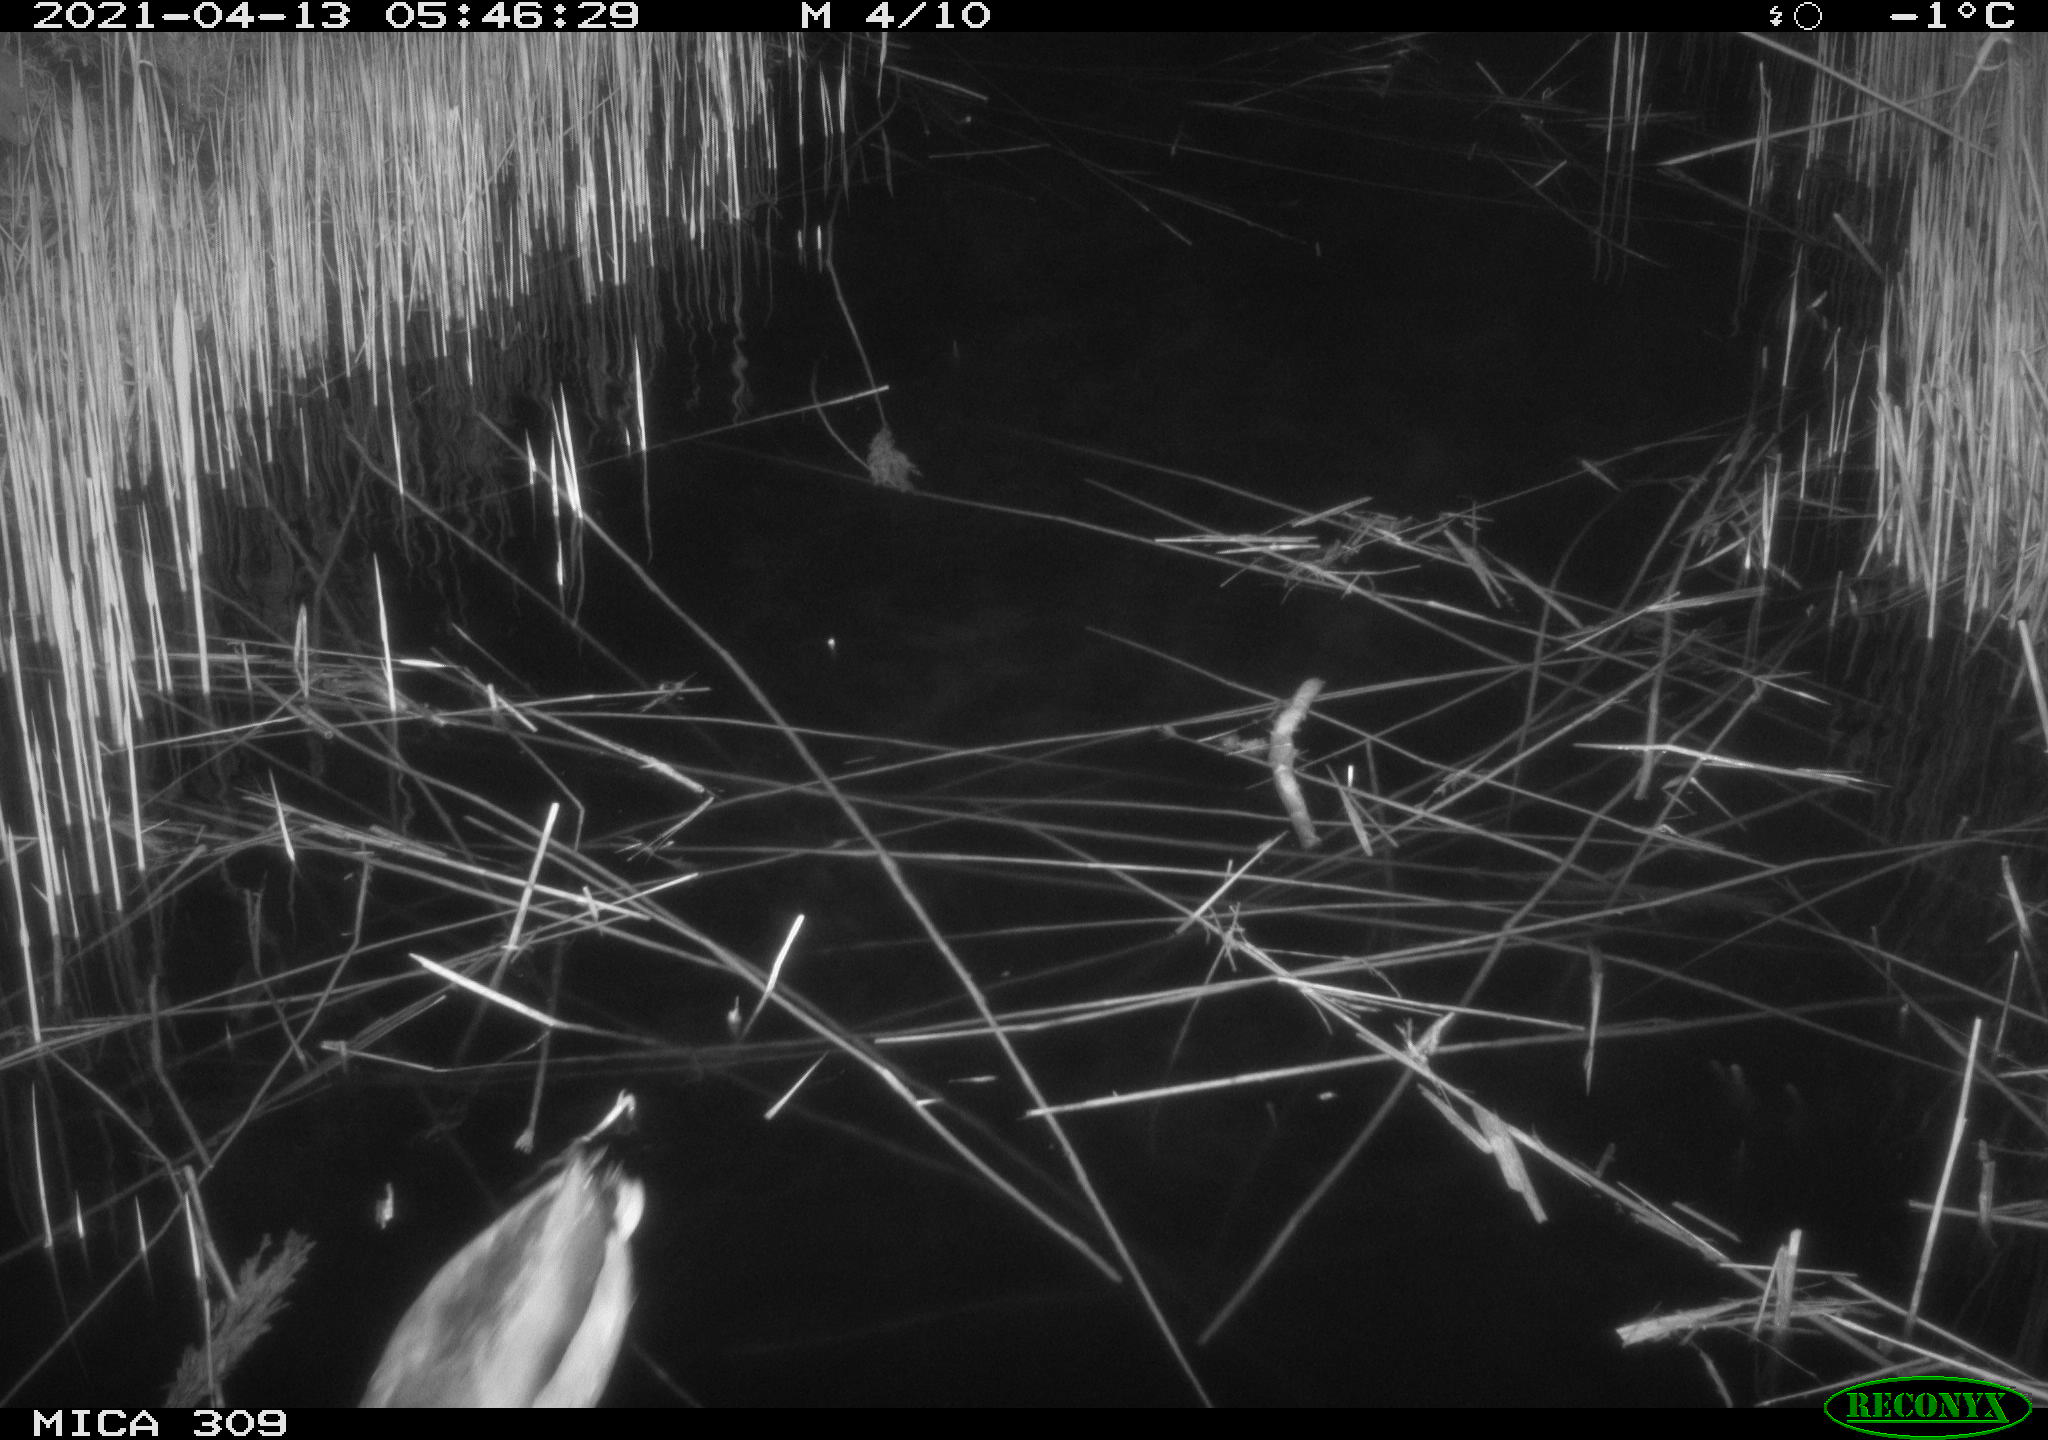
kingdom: Animalia
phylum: Chordata
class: Aves
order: Anseriformes
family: Anatidae
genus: Anas
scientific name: Anas platyrhynchos
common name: Mallard
